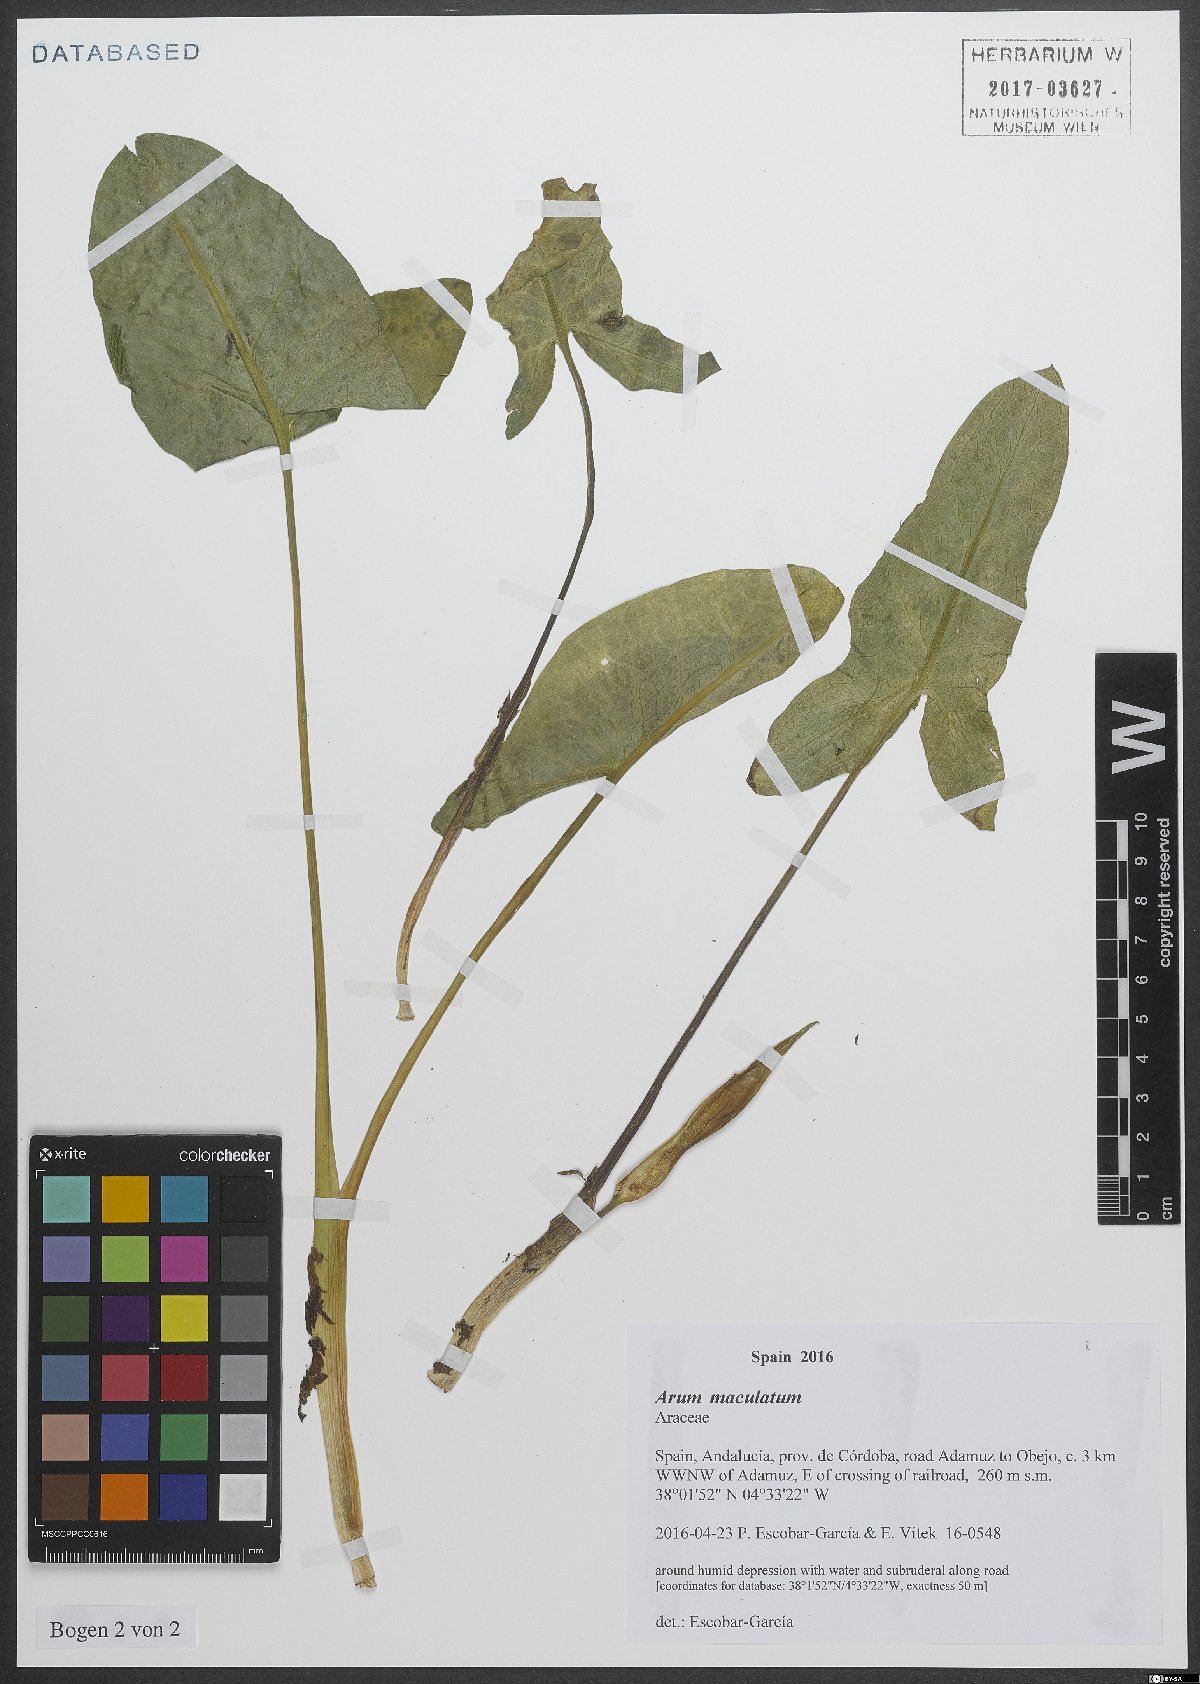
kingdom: Plantae
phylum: Tracheophyta
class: Liliopsida
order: Alismatales
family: Araceae
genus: Arum
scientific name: Arum maculatum
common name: Lords-and-ladies
